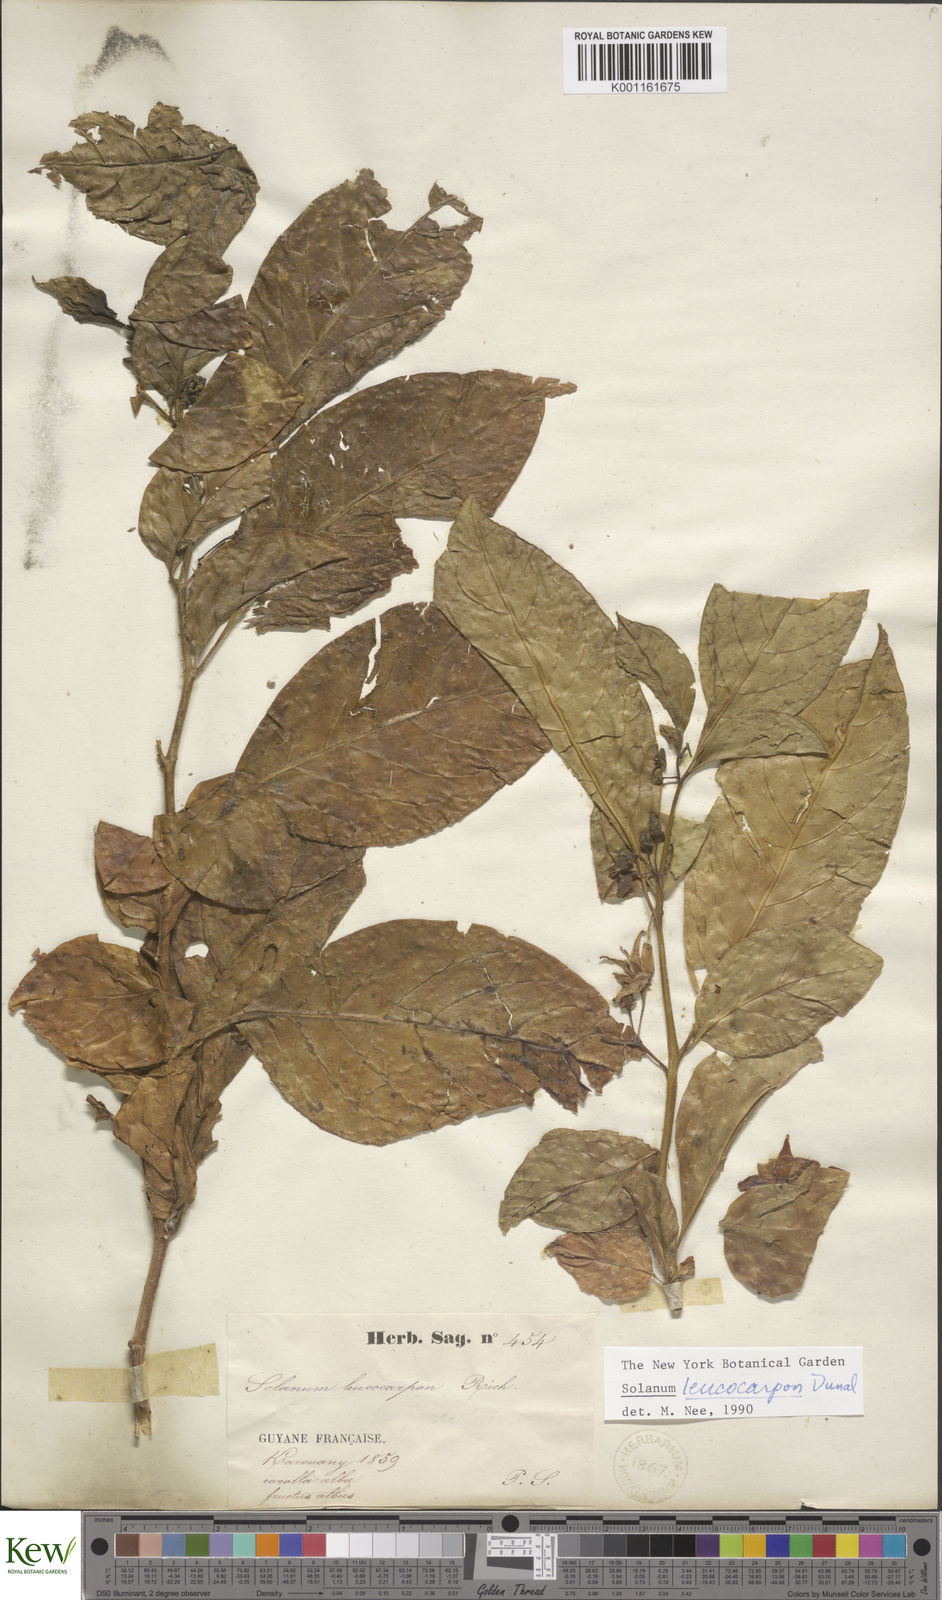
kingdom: Plantae
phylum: Tracheophyta
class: Magnoliopsida
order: Solanales
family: Solanaceae
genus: Solanum
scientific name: Solanum leucocarpon
